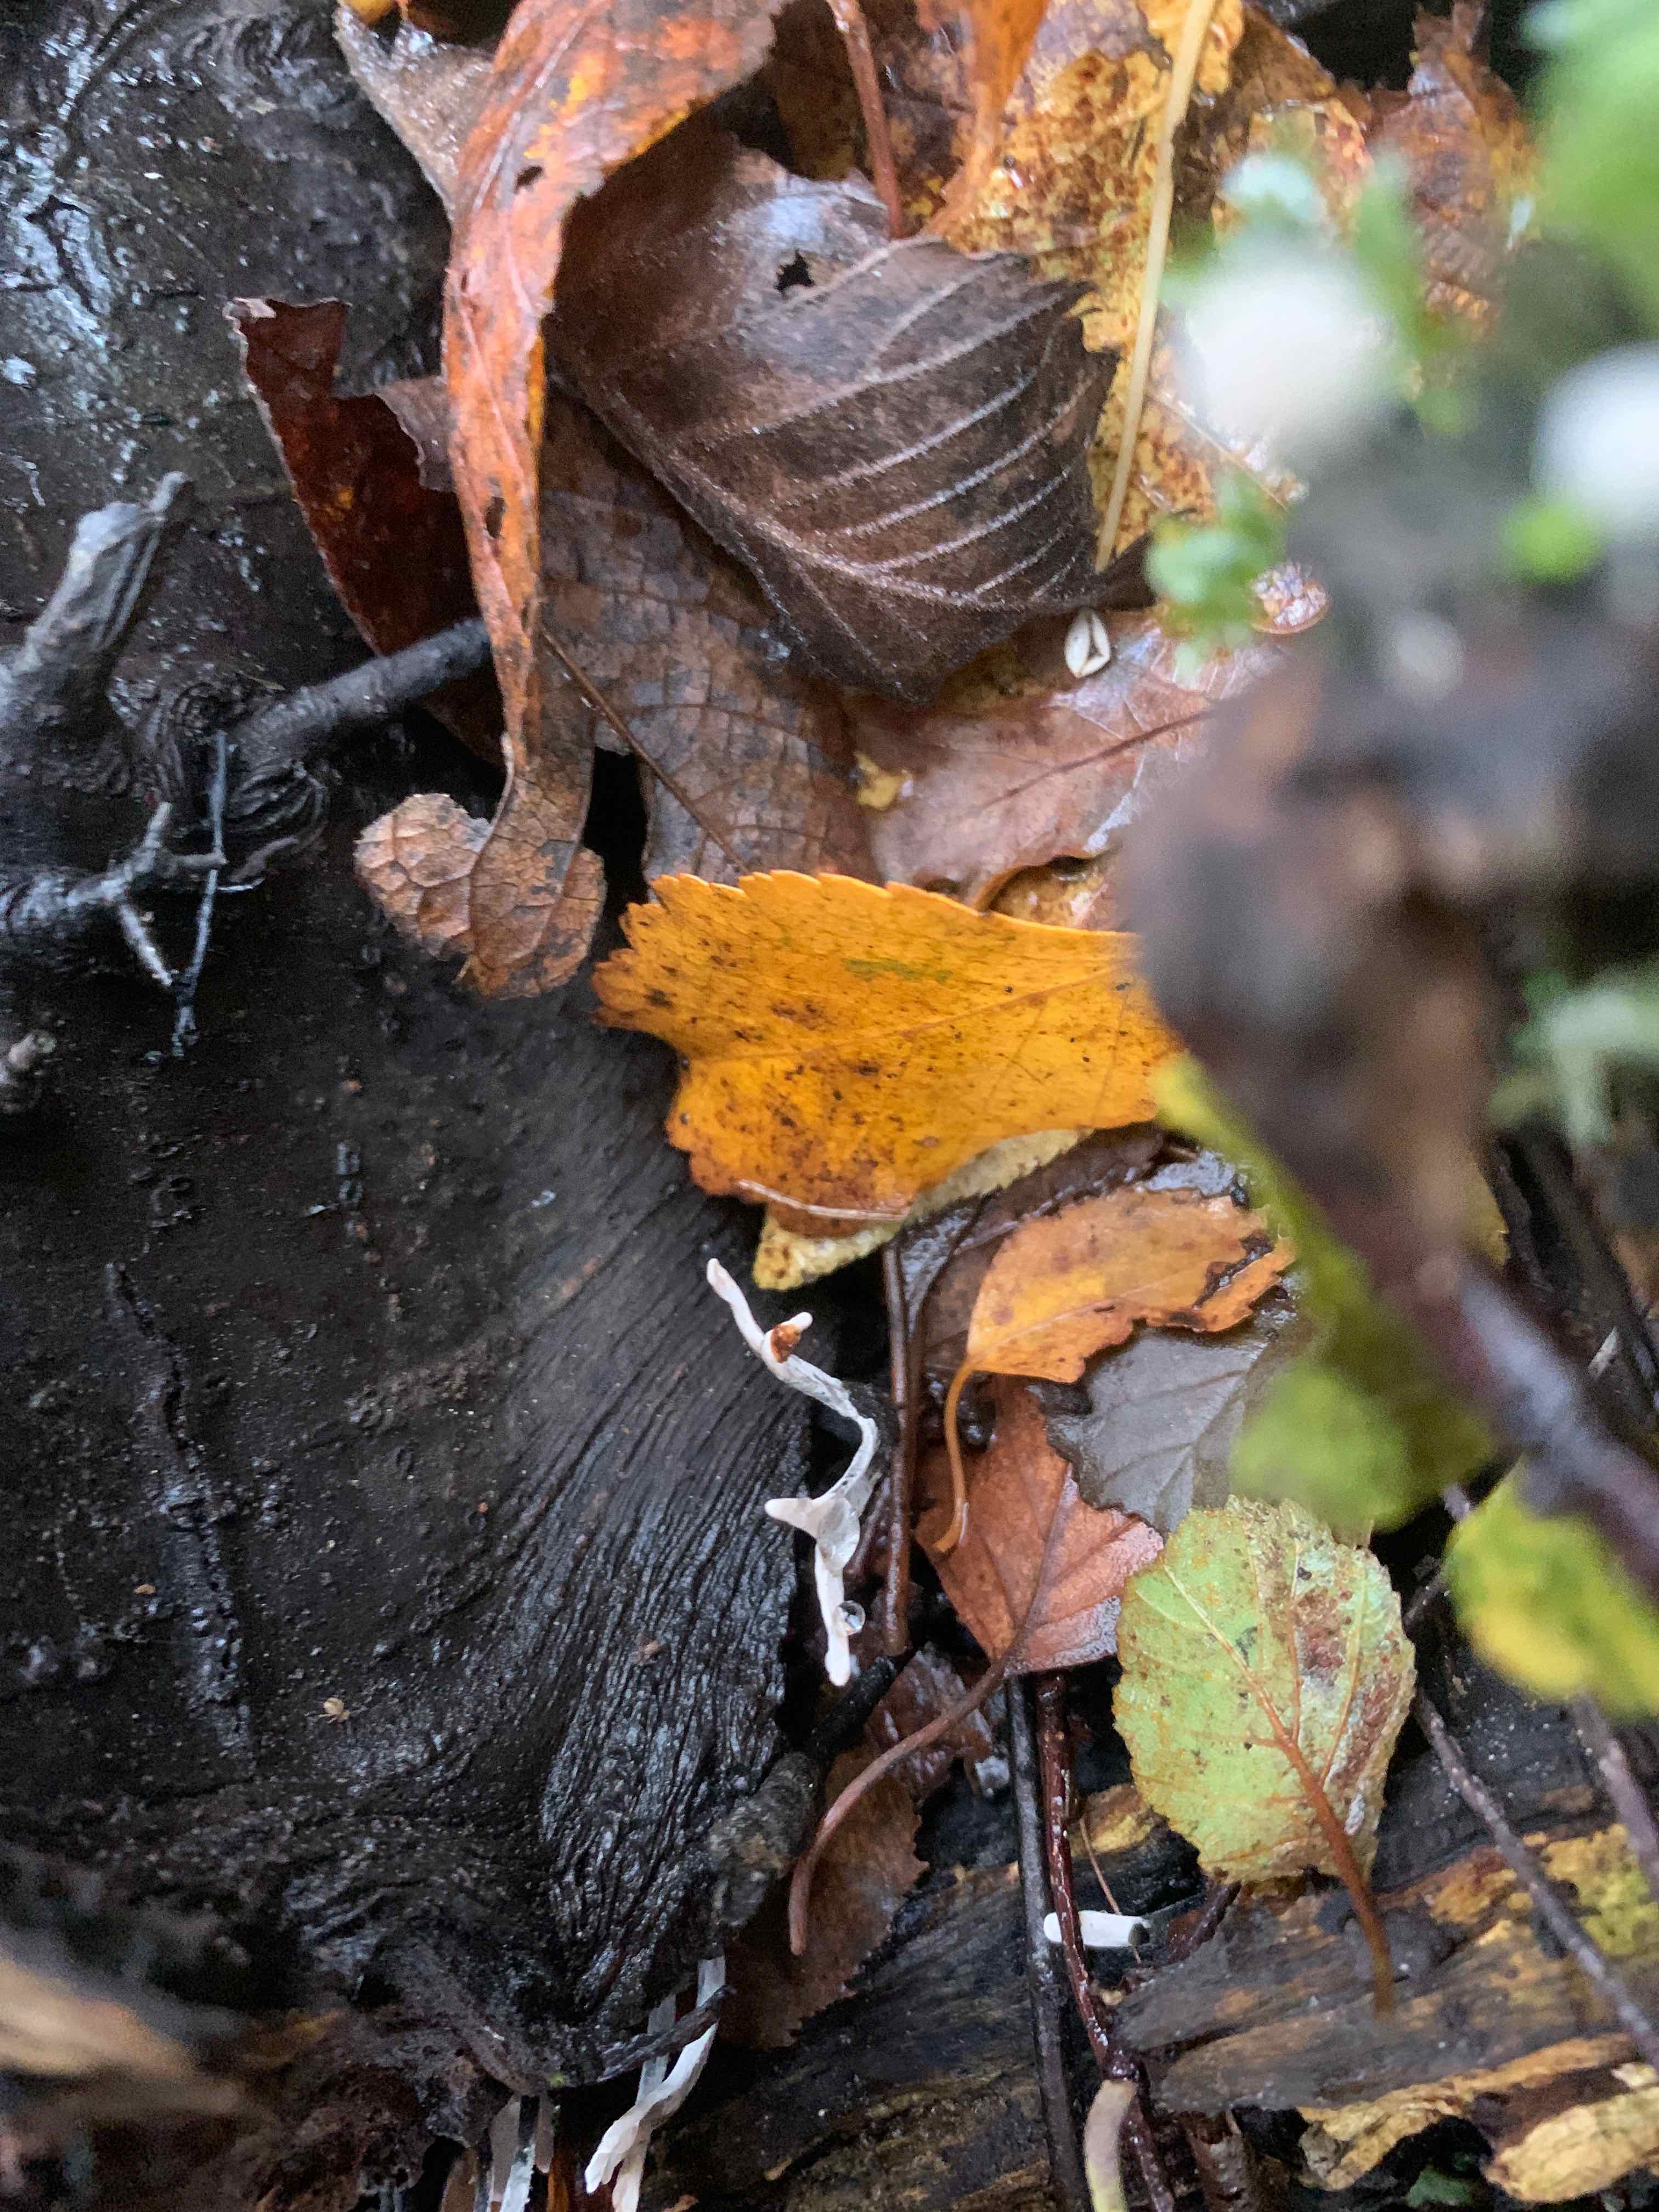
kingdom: Fungi
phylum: Ascomycota
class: Sordariomycetes
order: Xylariales
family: Xylariaceae
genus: Xylaria
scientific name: Xylaria hypoxylon
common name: grenet stødsvamp
